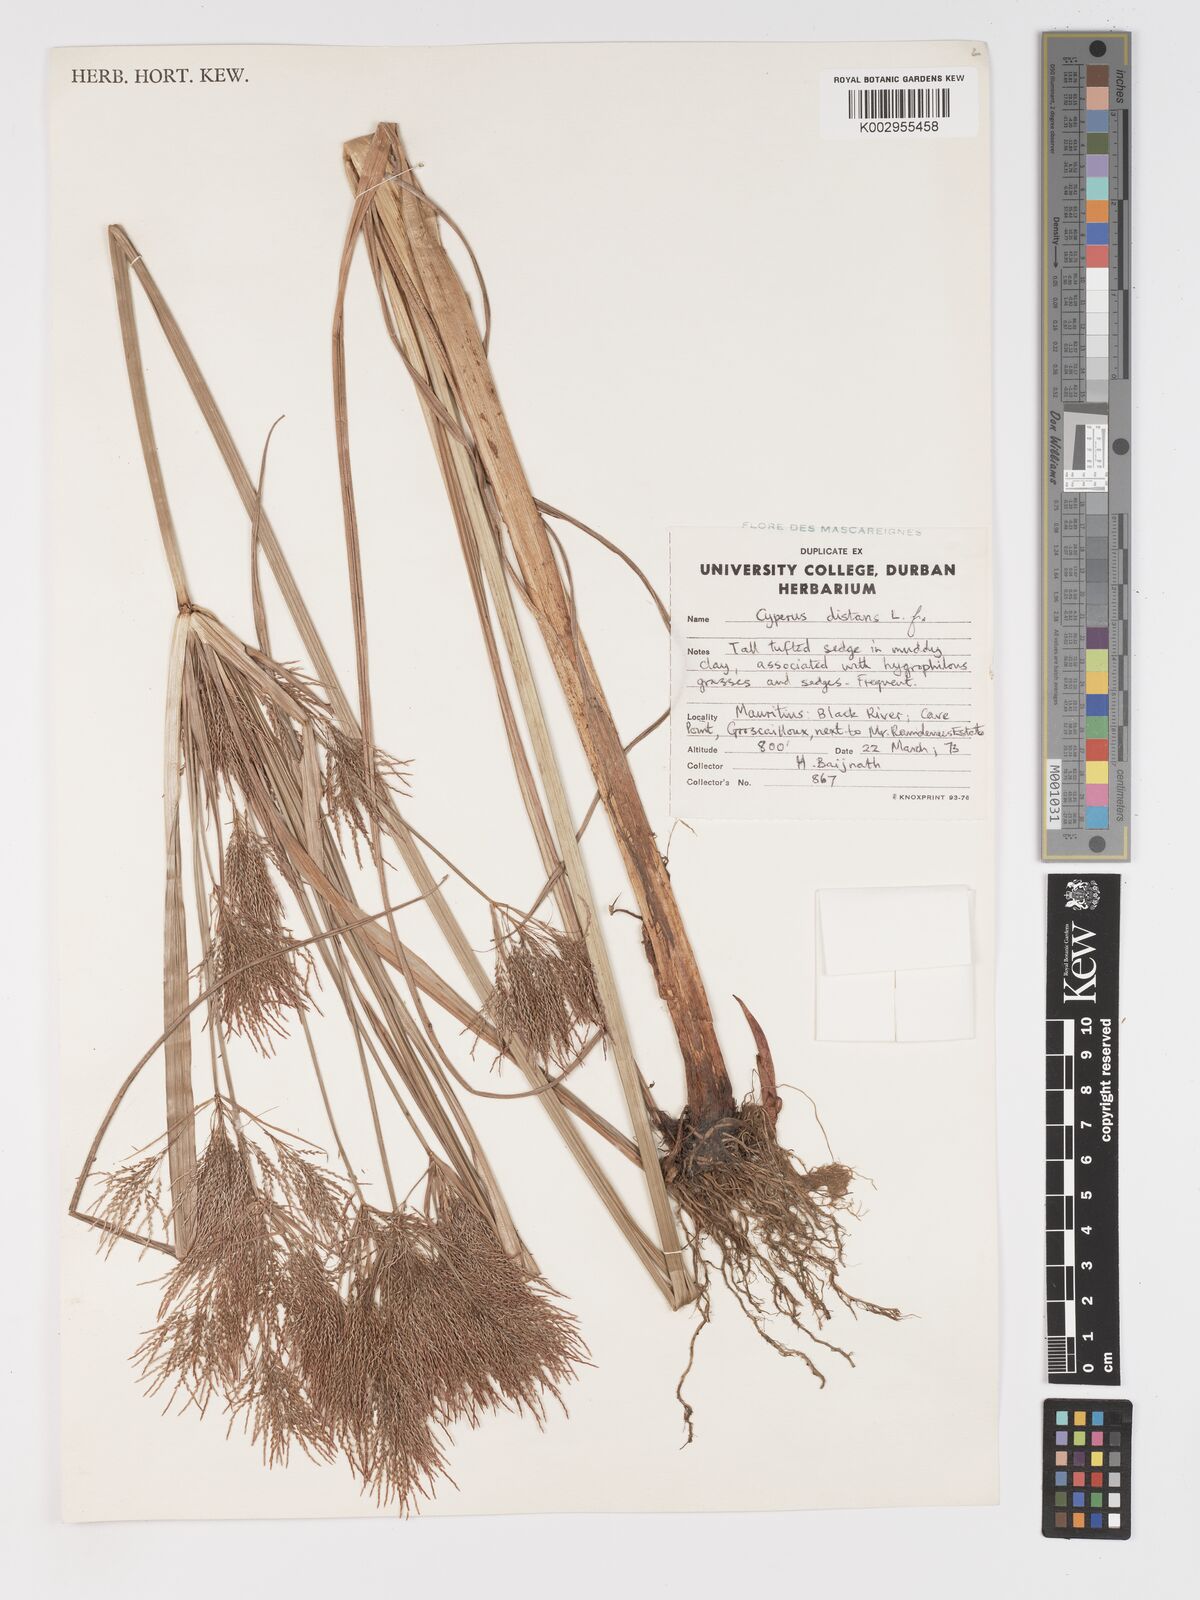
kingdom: Plantae
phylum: Tracheophyta
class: Liliopsida
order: Poales
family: Cyperaceae
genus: Cyperus
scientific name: Cyperus distans
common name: Slender cyperus
